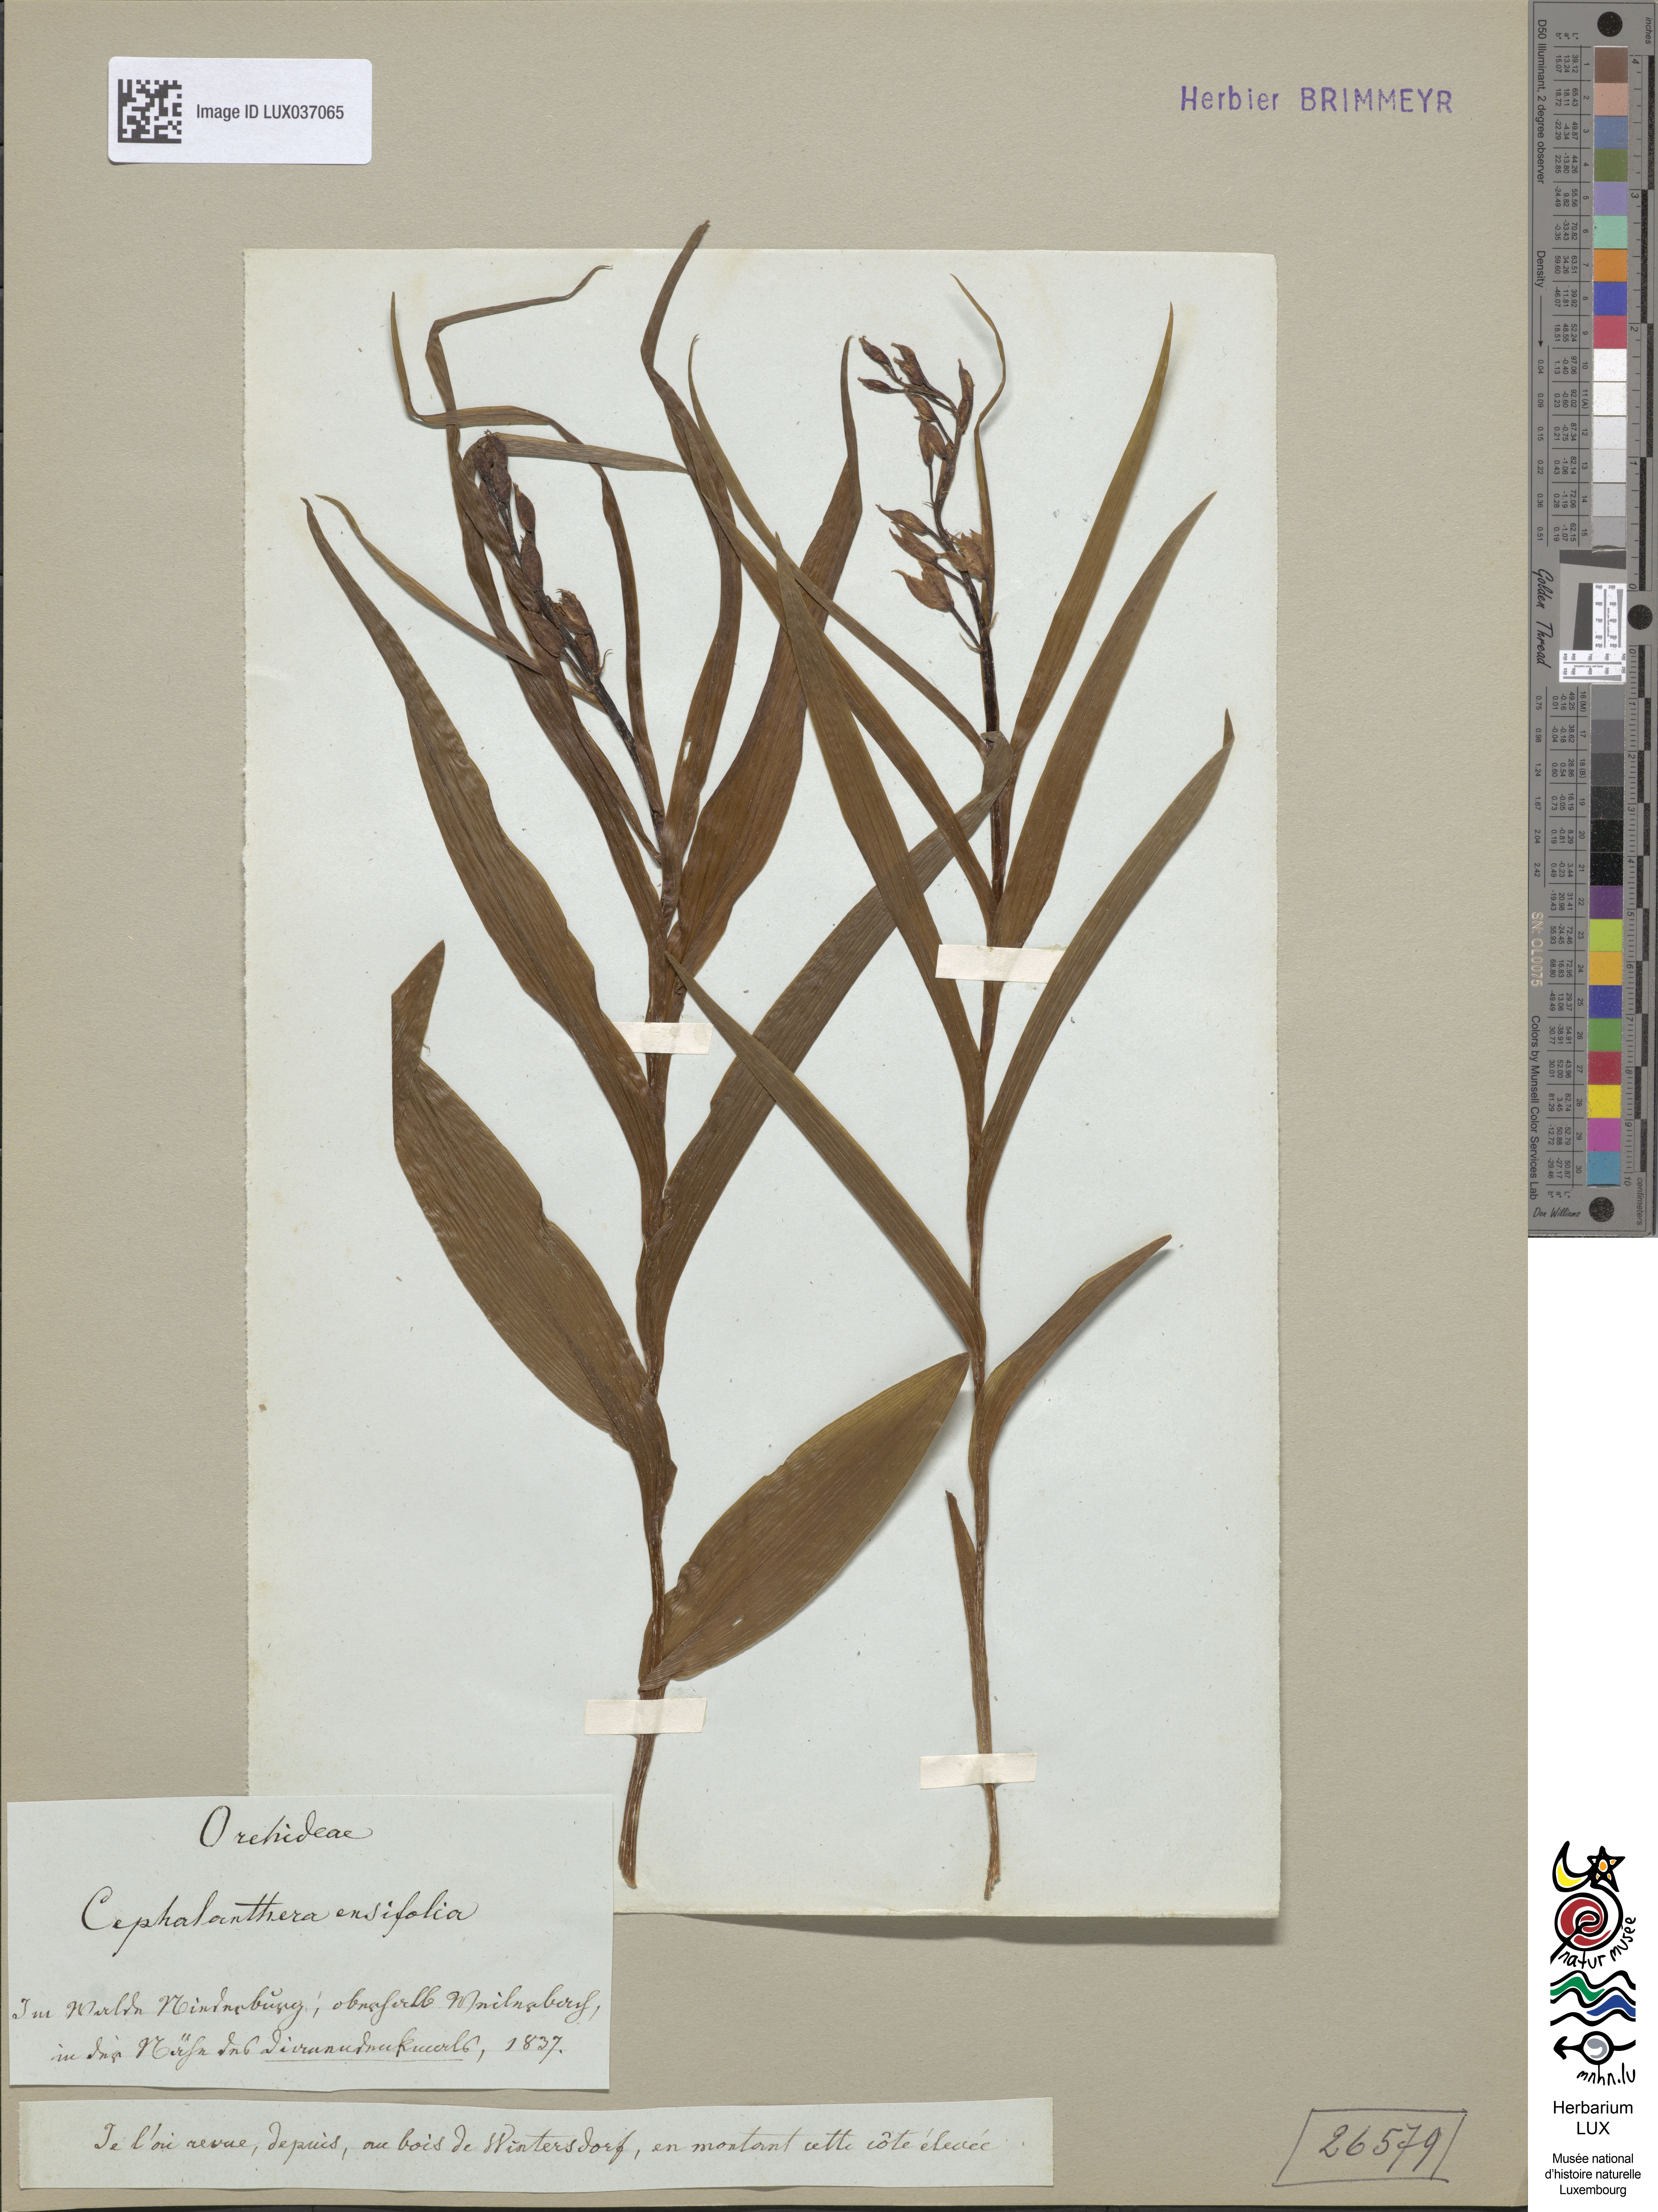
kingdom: Plantae
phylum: Tracheophyta
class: Liliopsida
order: Asparagales
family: Orchidaceae
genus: Cephalanthera
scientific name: Cephalanthera longifolia
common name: Narrow-leaved helleborine
